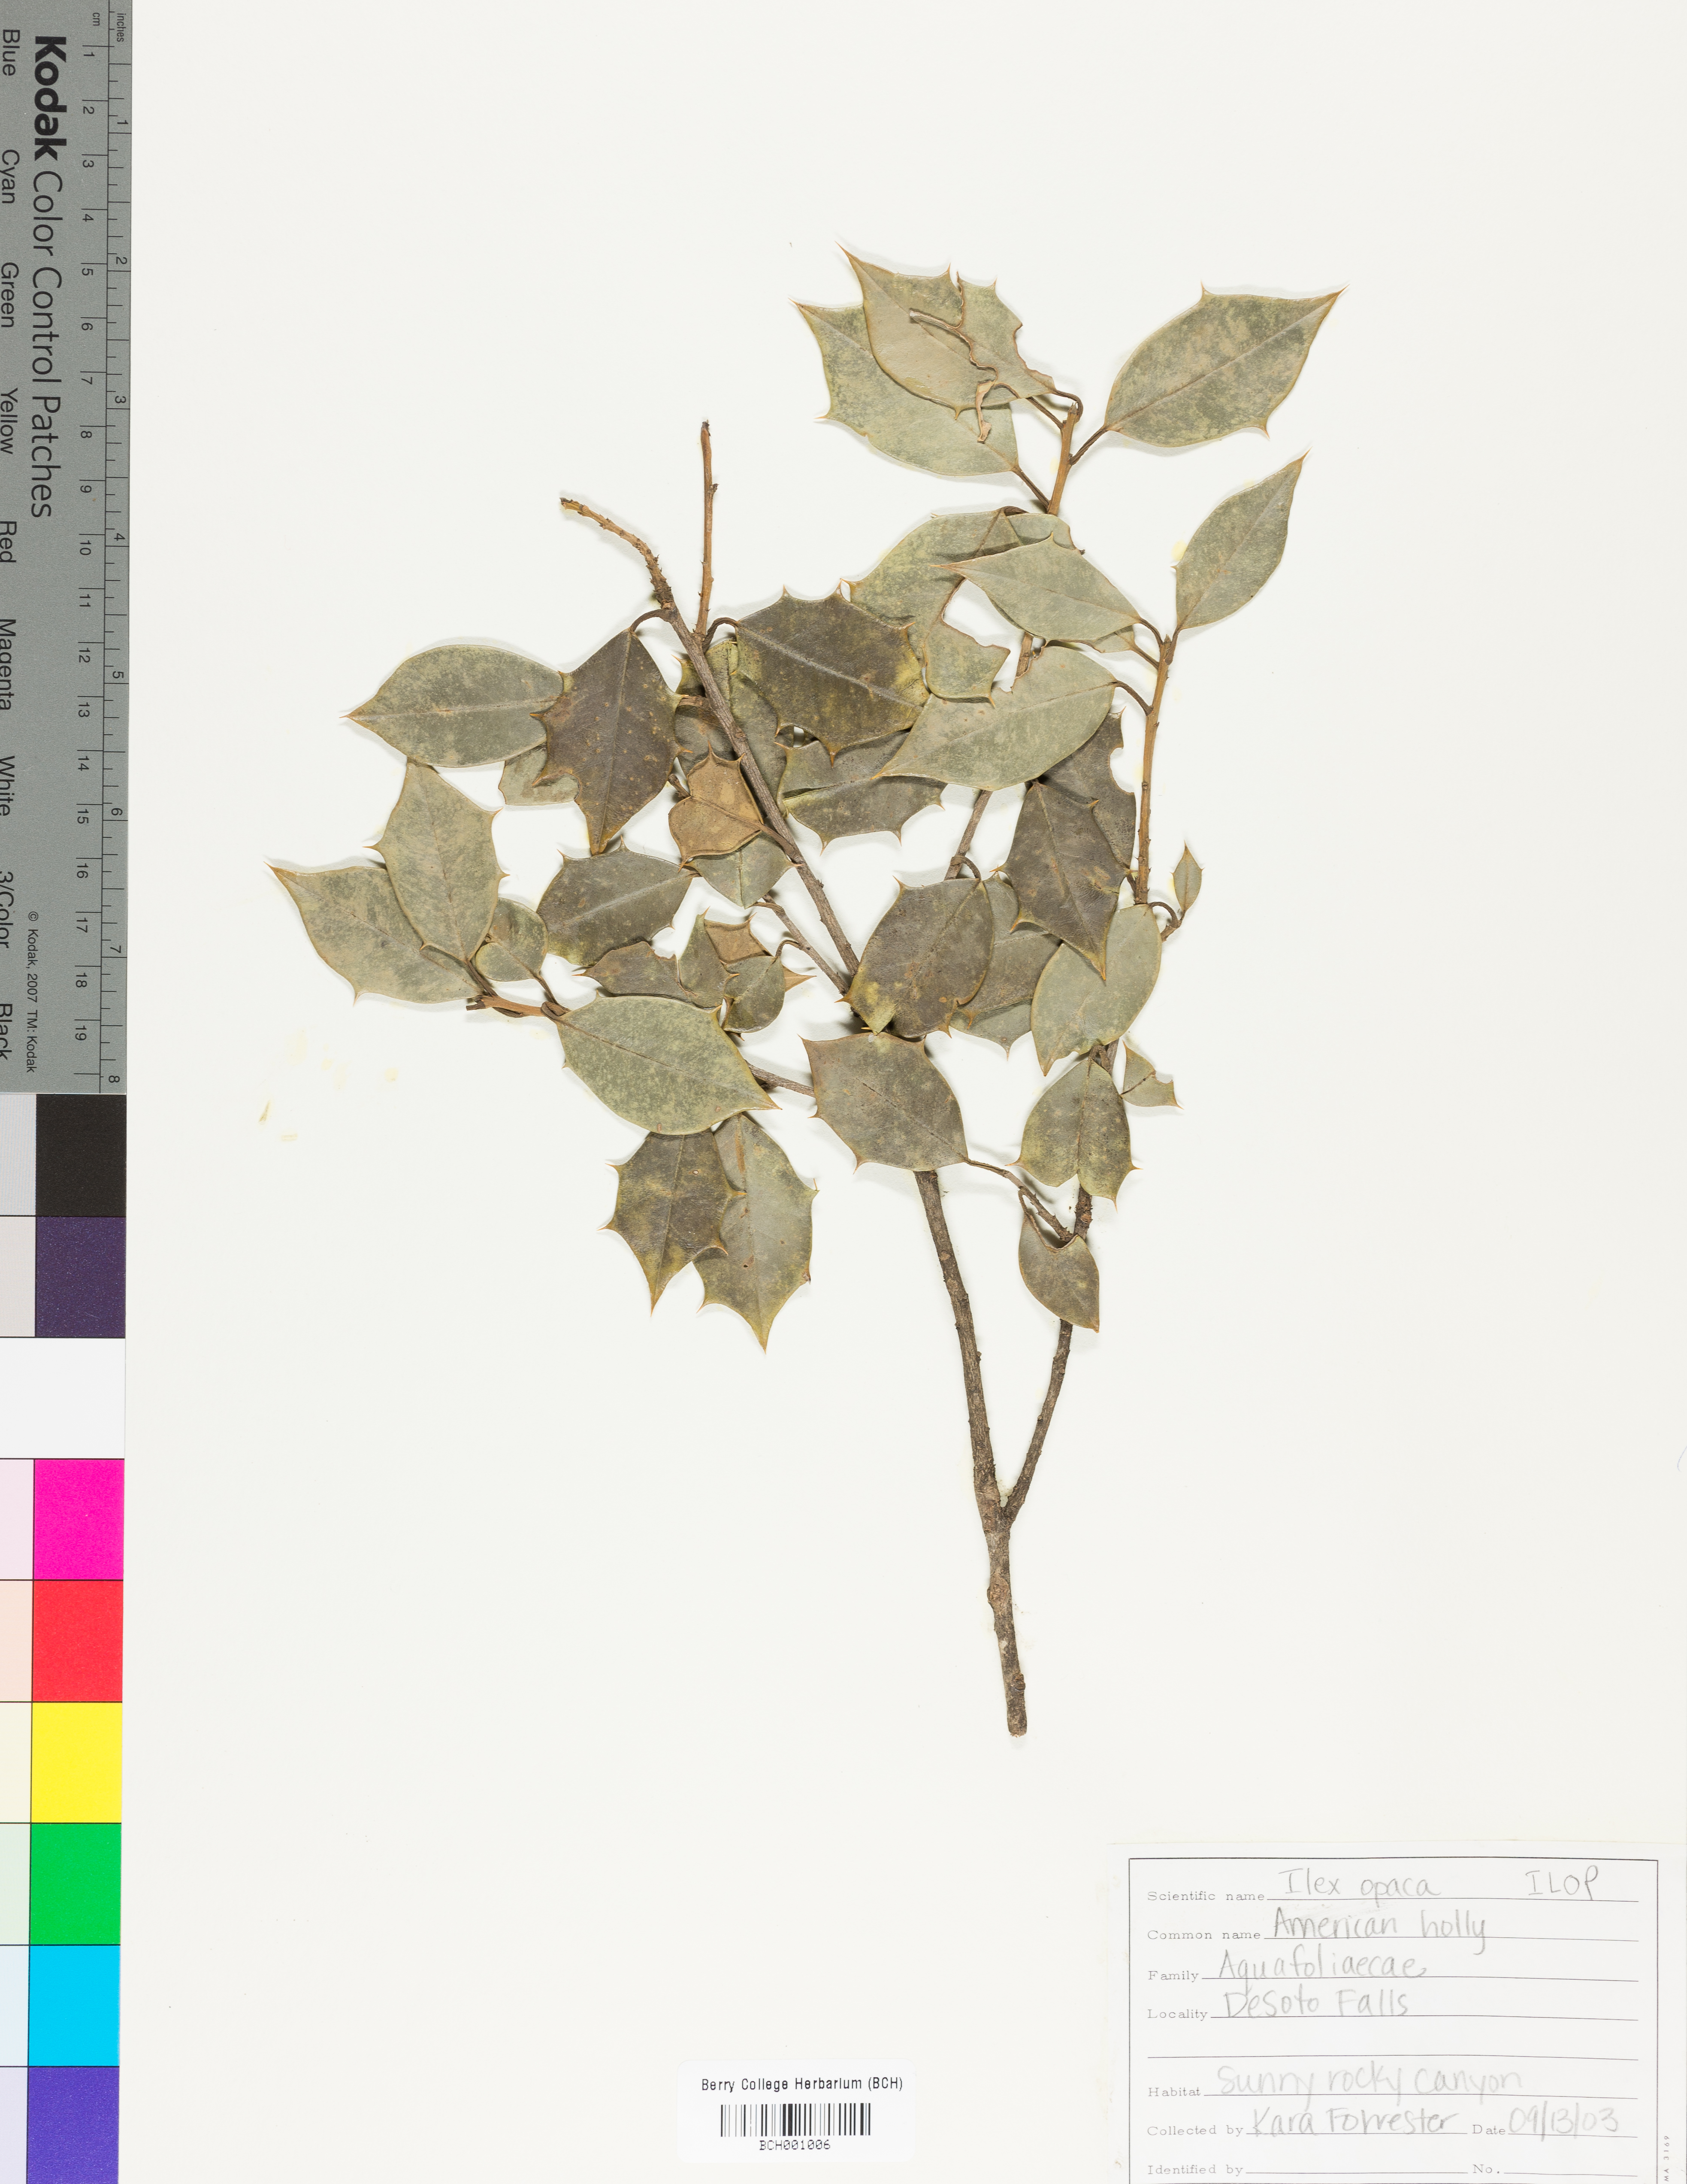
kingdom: Plantae
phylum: Tracheophyta
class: Magnoliopsida
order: Aquifoliales
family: Aquifoliaceae
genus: Ilex
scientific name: Ilex opaca
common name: American holly
